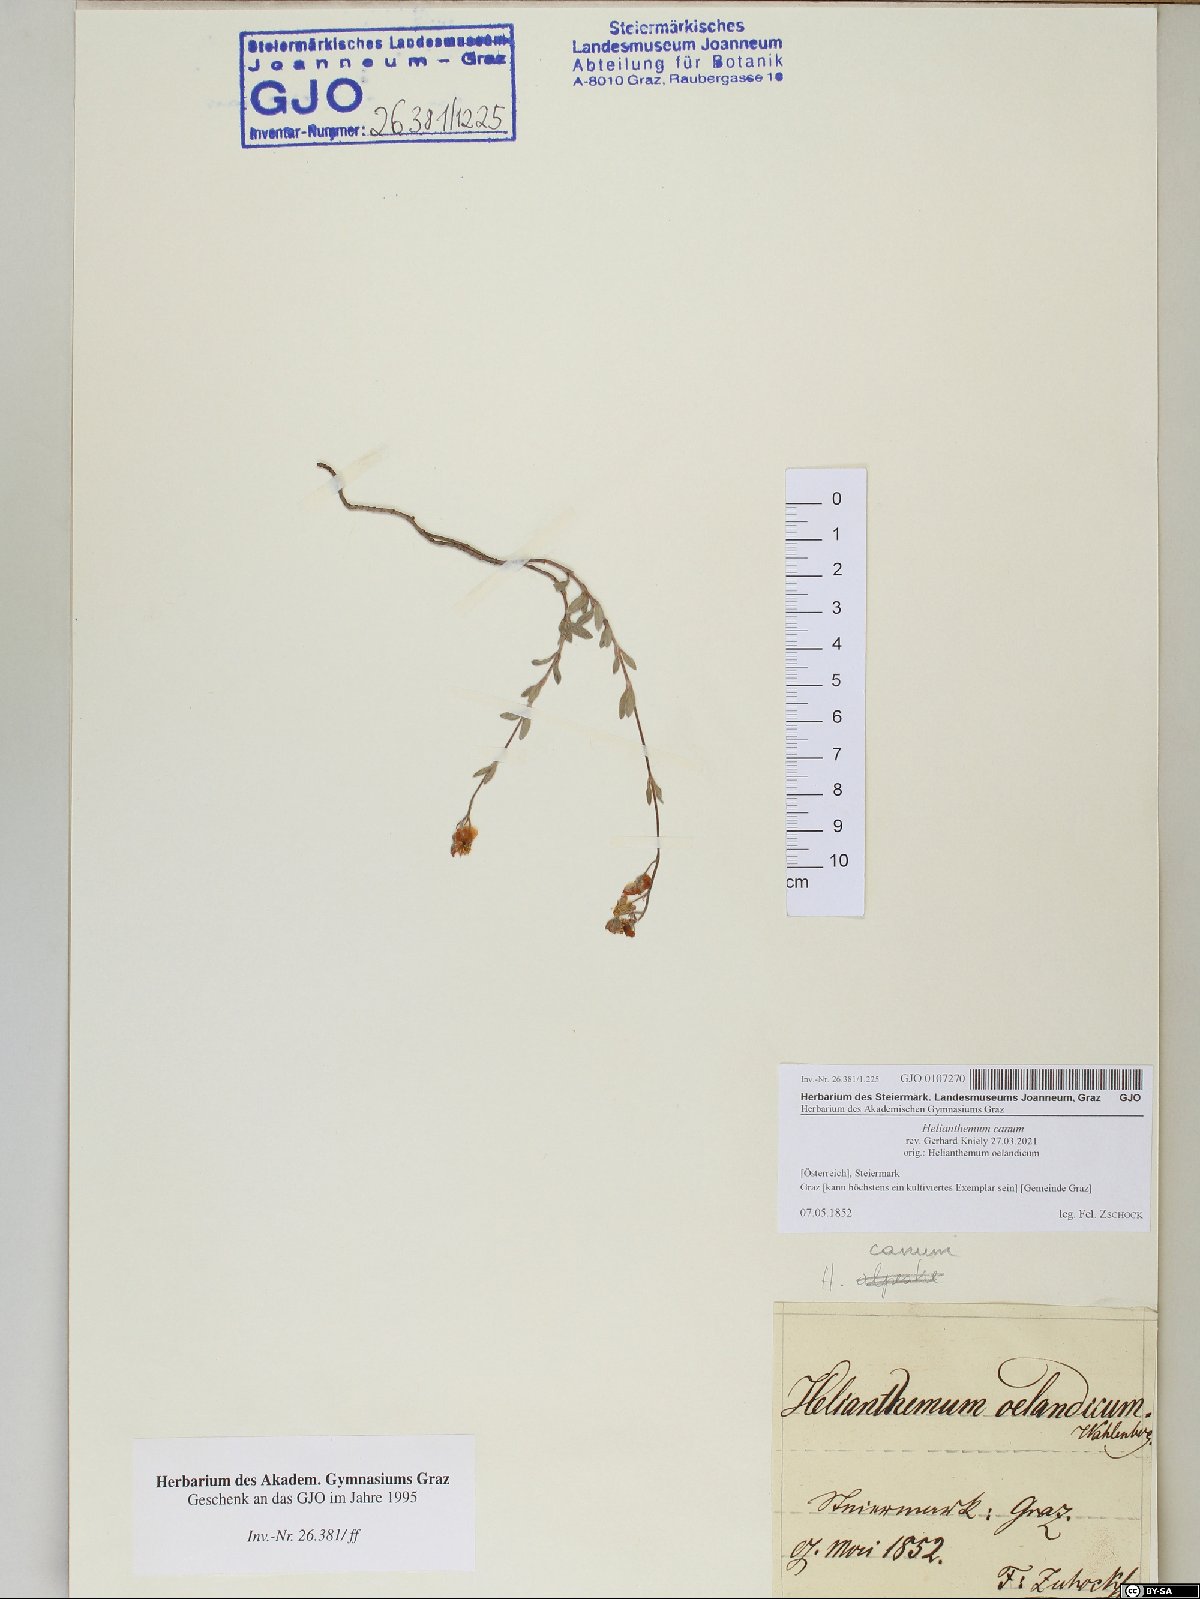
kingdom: Plantae
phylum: Tracheophyta
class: Magnoliopsida
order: Malvales
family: Cistaceae
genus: Helianthemum
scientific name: Helianthemum canum
